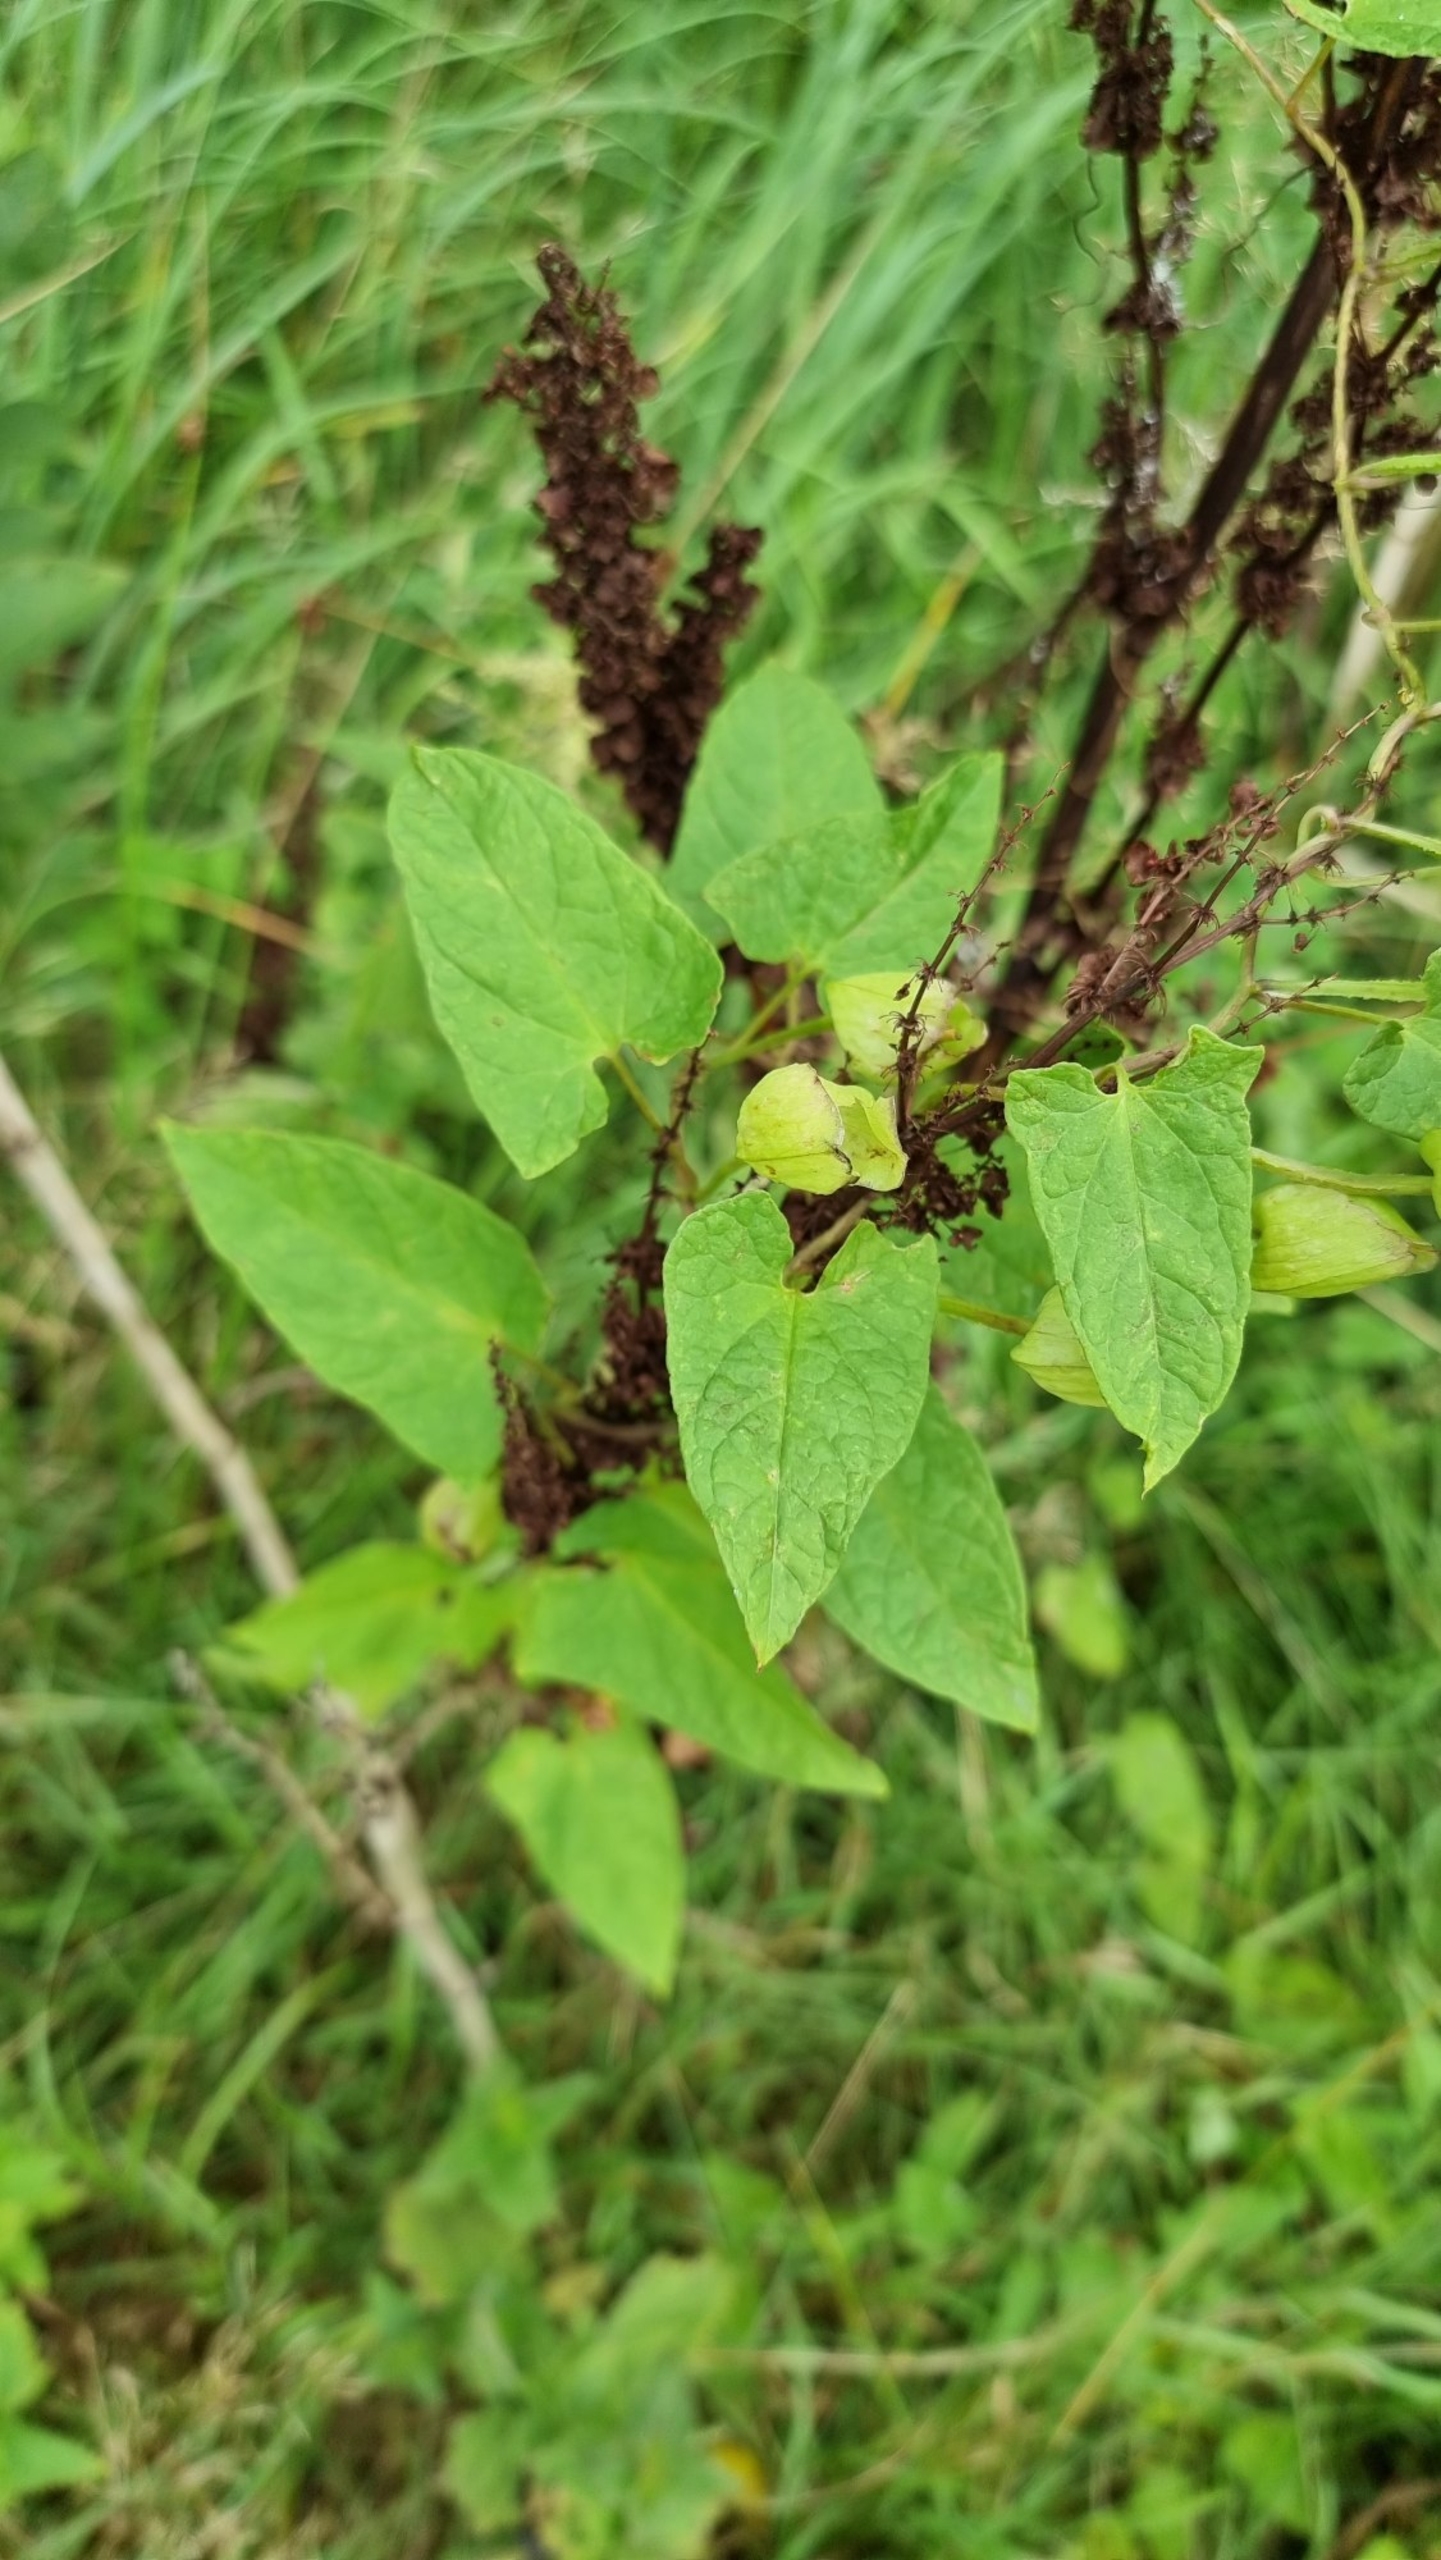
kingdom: Plantae
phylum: Tracheophyta
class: Magnoliopsida
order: Solanales
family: Convolvulaceae
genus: Calystegia
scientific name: Calystegia pulchra
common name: Have-snerle
